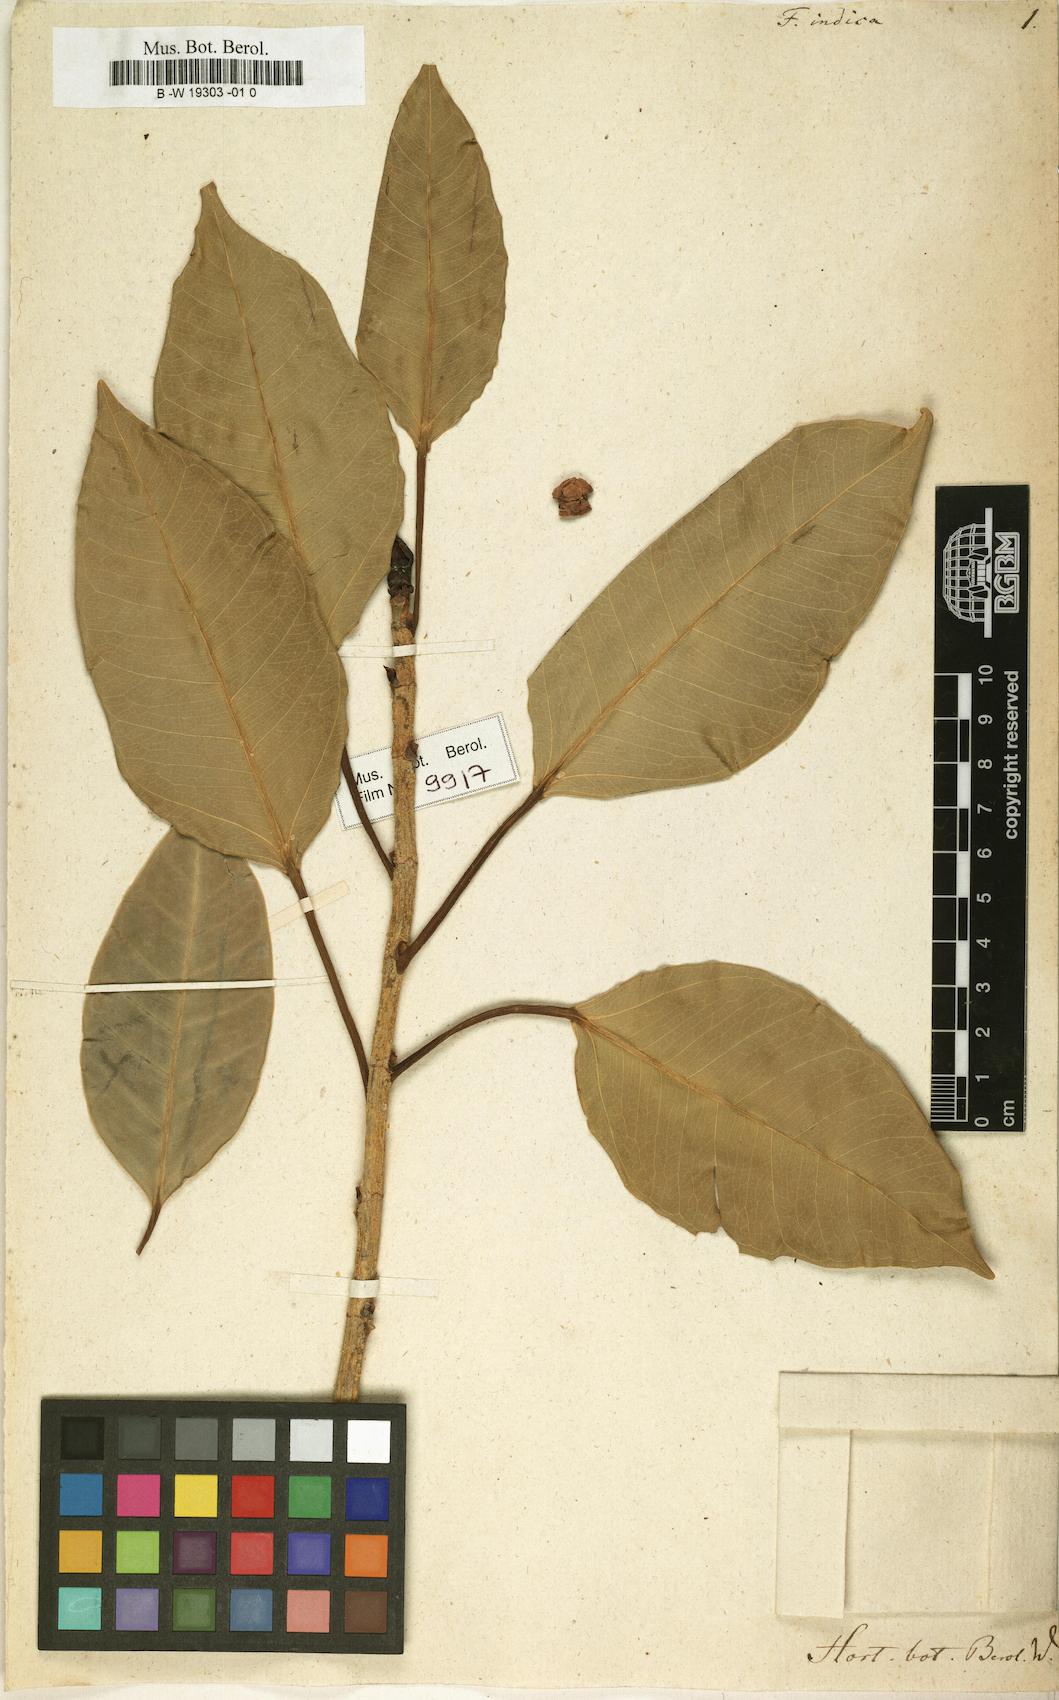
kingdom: Plantae
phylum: Tracheophyta
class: Magnoliopsida
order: Rosales
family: Moraceae
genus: Ficus
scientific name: Ficus indica
